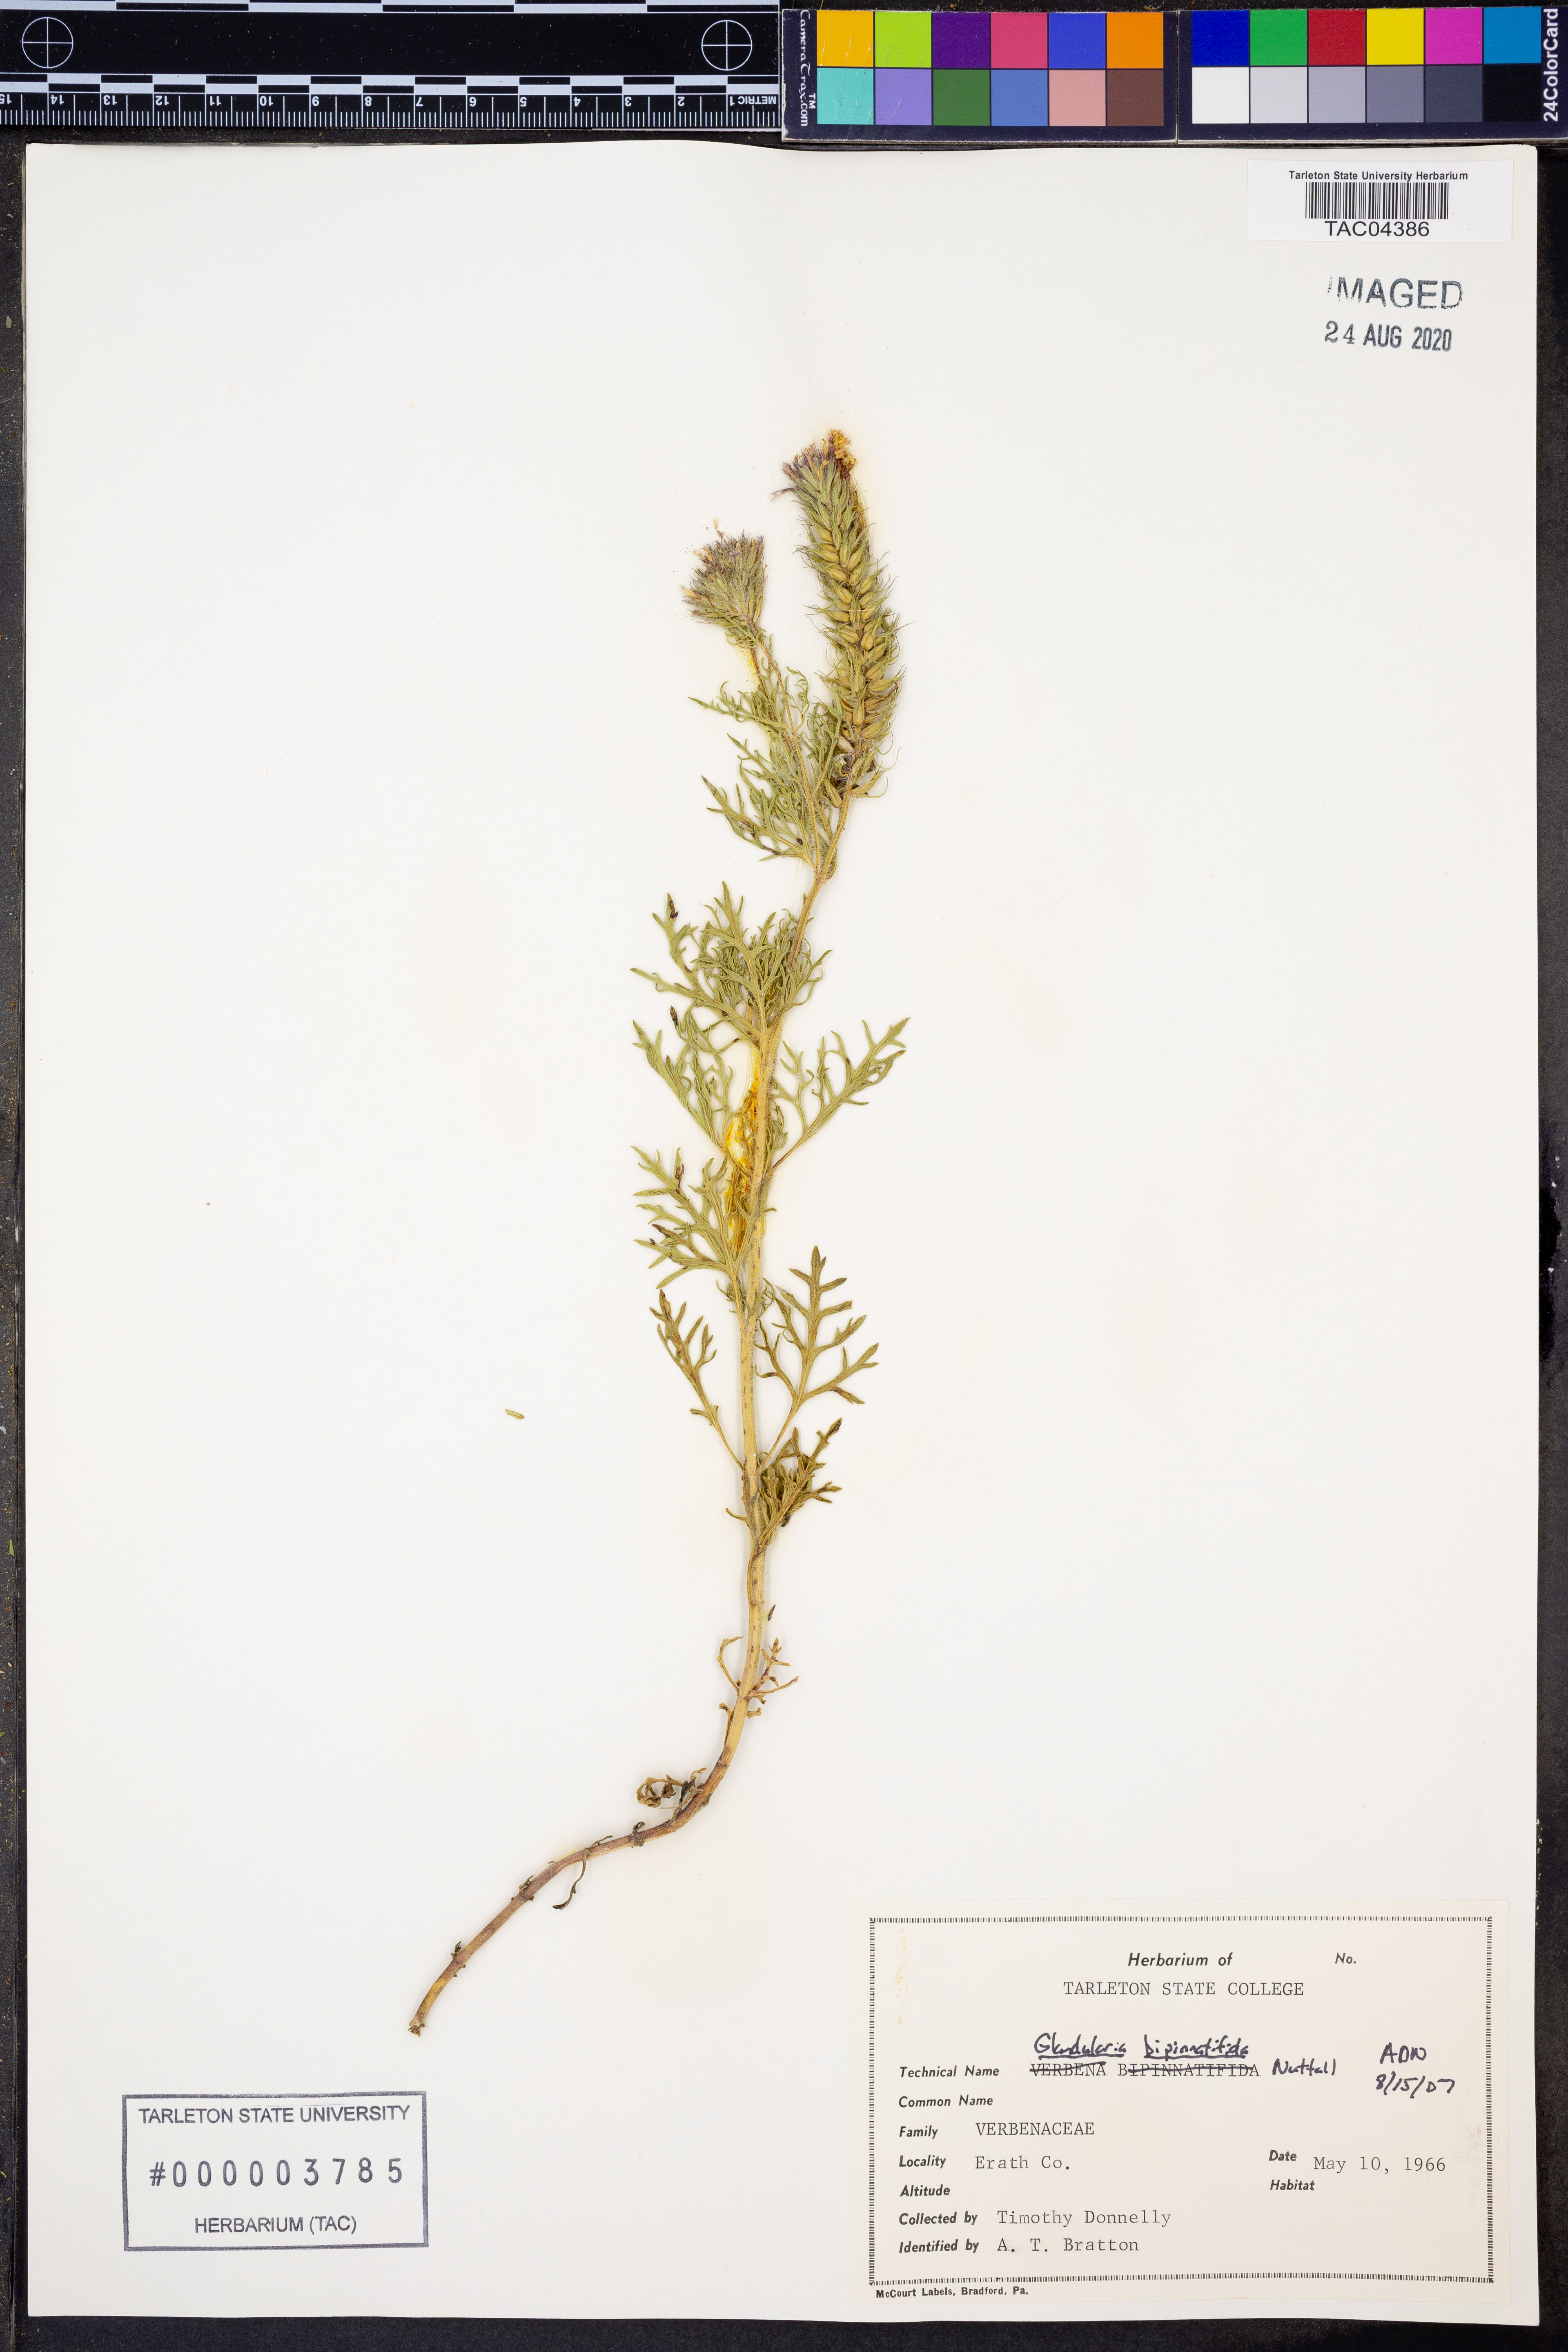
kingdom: Plantae
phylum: Tracheophyta
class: Magnoliopsida
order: Lamiales
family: Verbenaceae
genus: Verbena
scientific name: Verbena bipinnatifida
